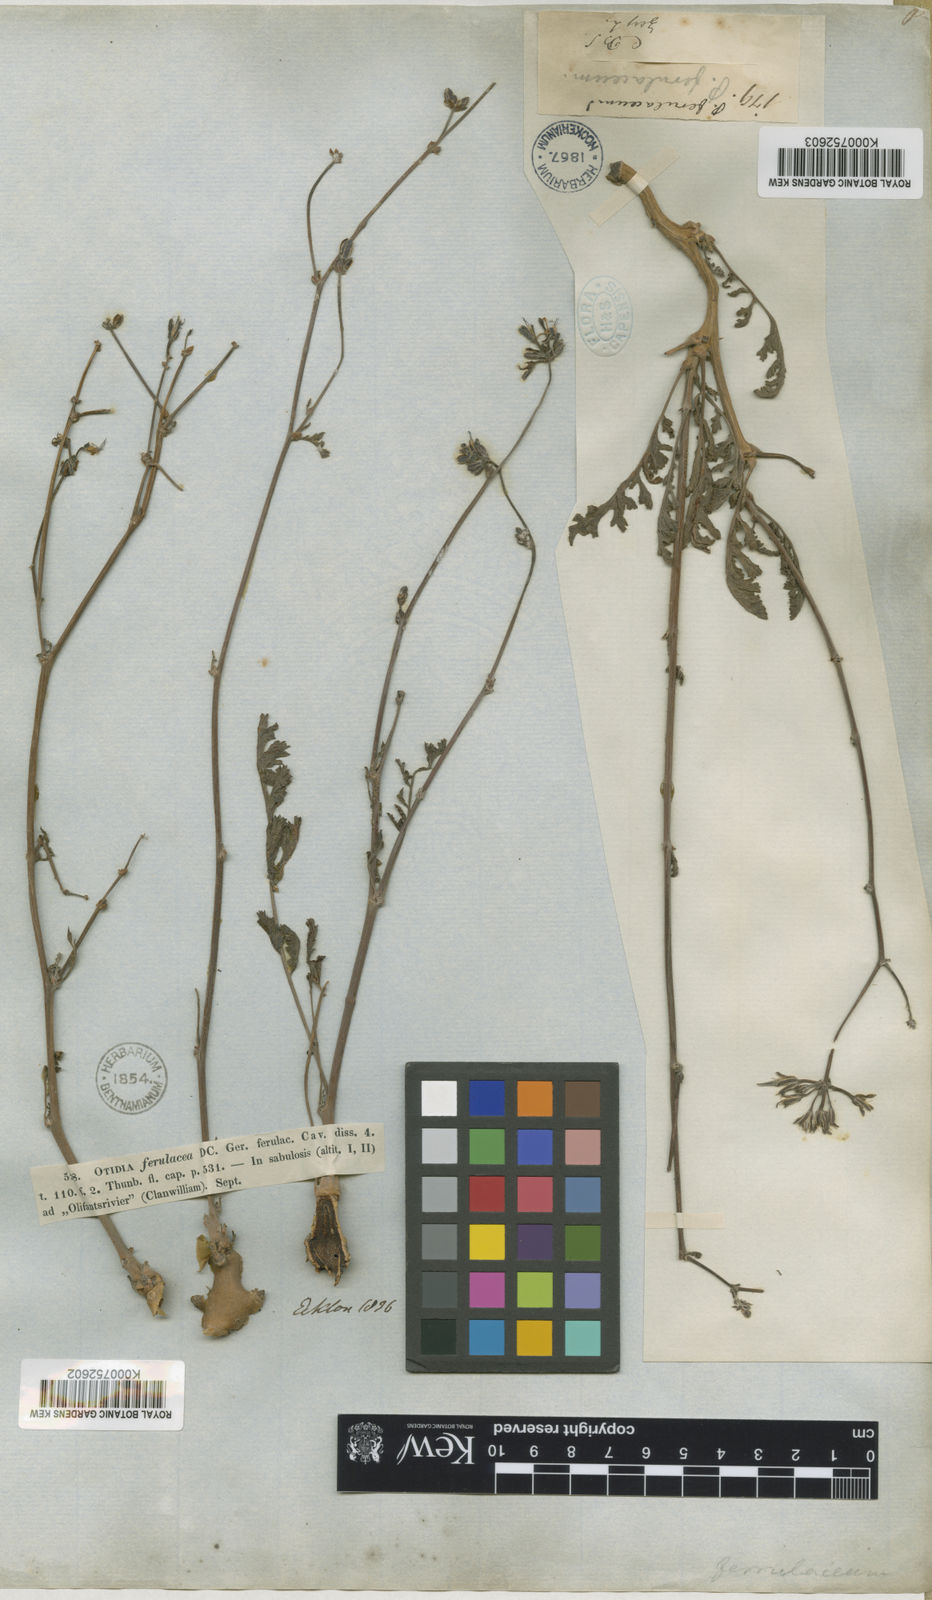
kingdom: Plantae
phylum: Tracheophyta
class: Magnoliopsida
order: Geraniales
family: Geraniaceae
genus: Pelargonium
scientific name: Pelargonium
